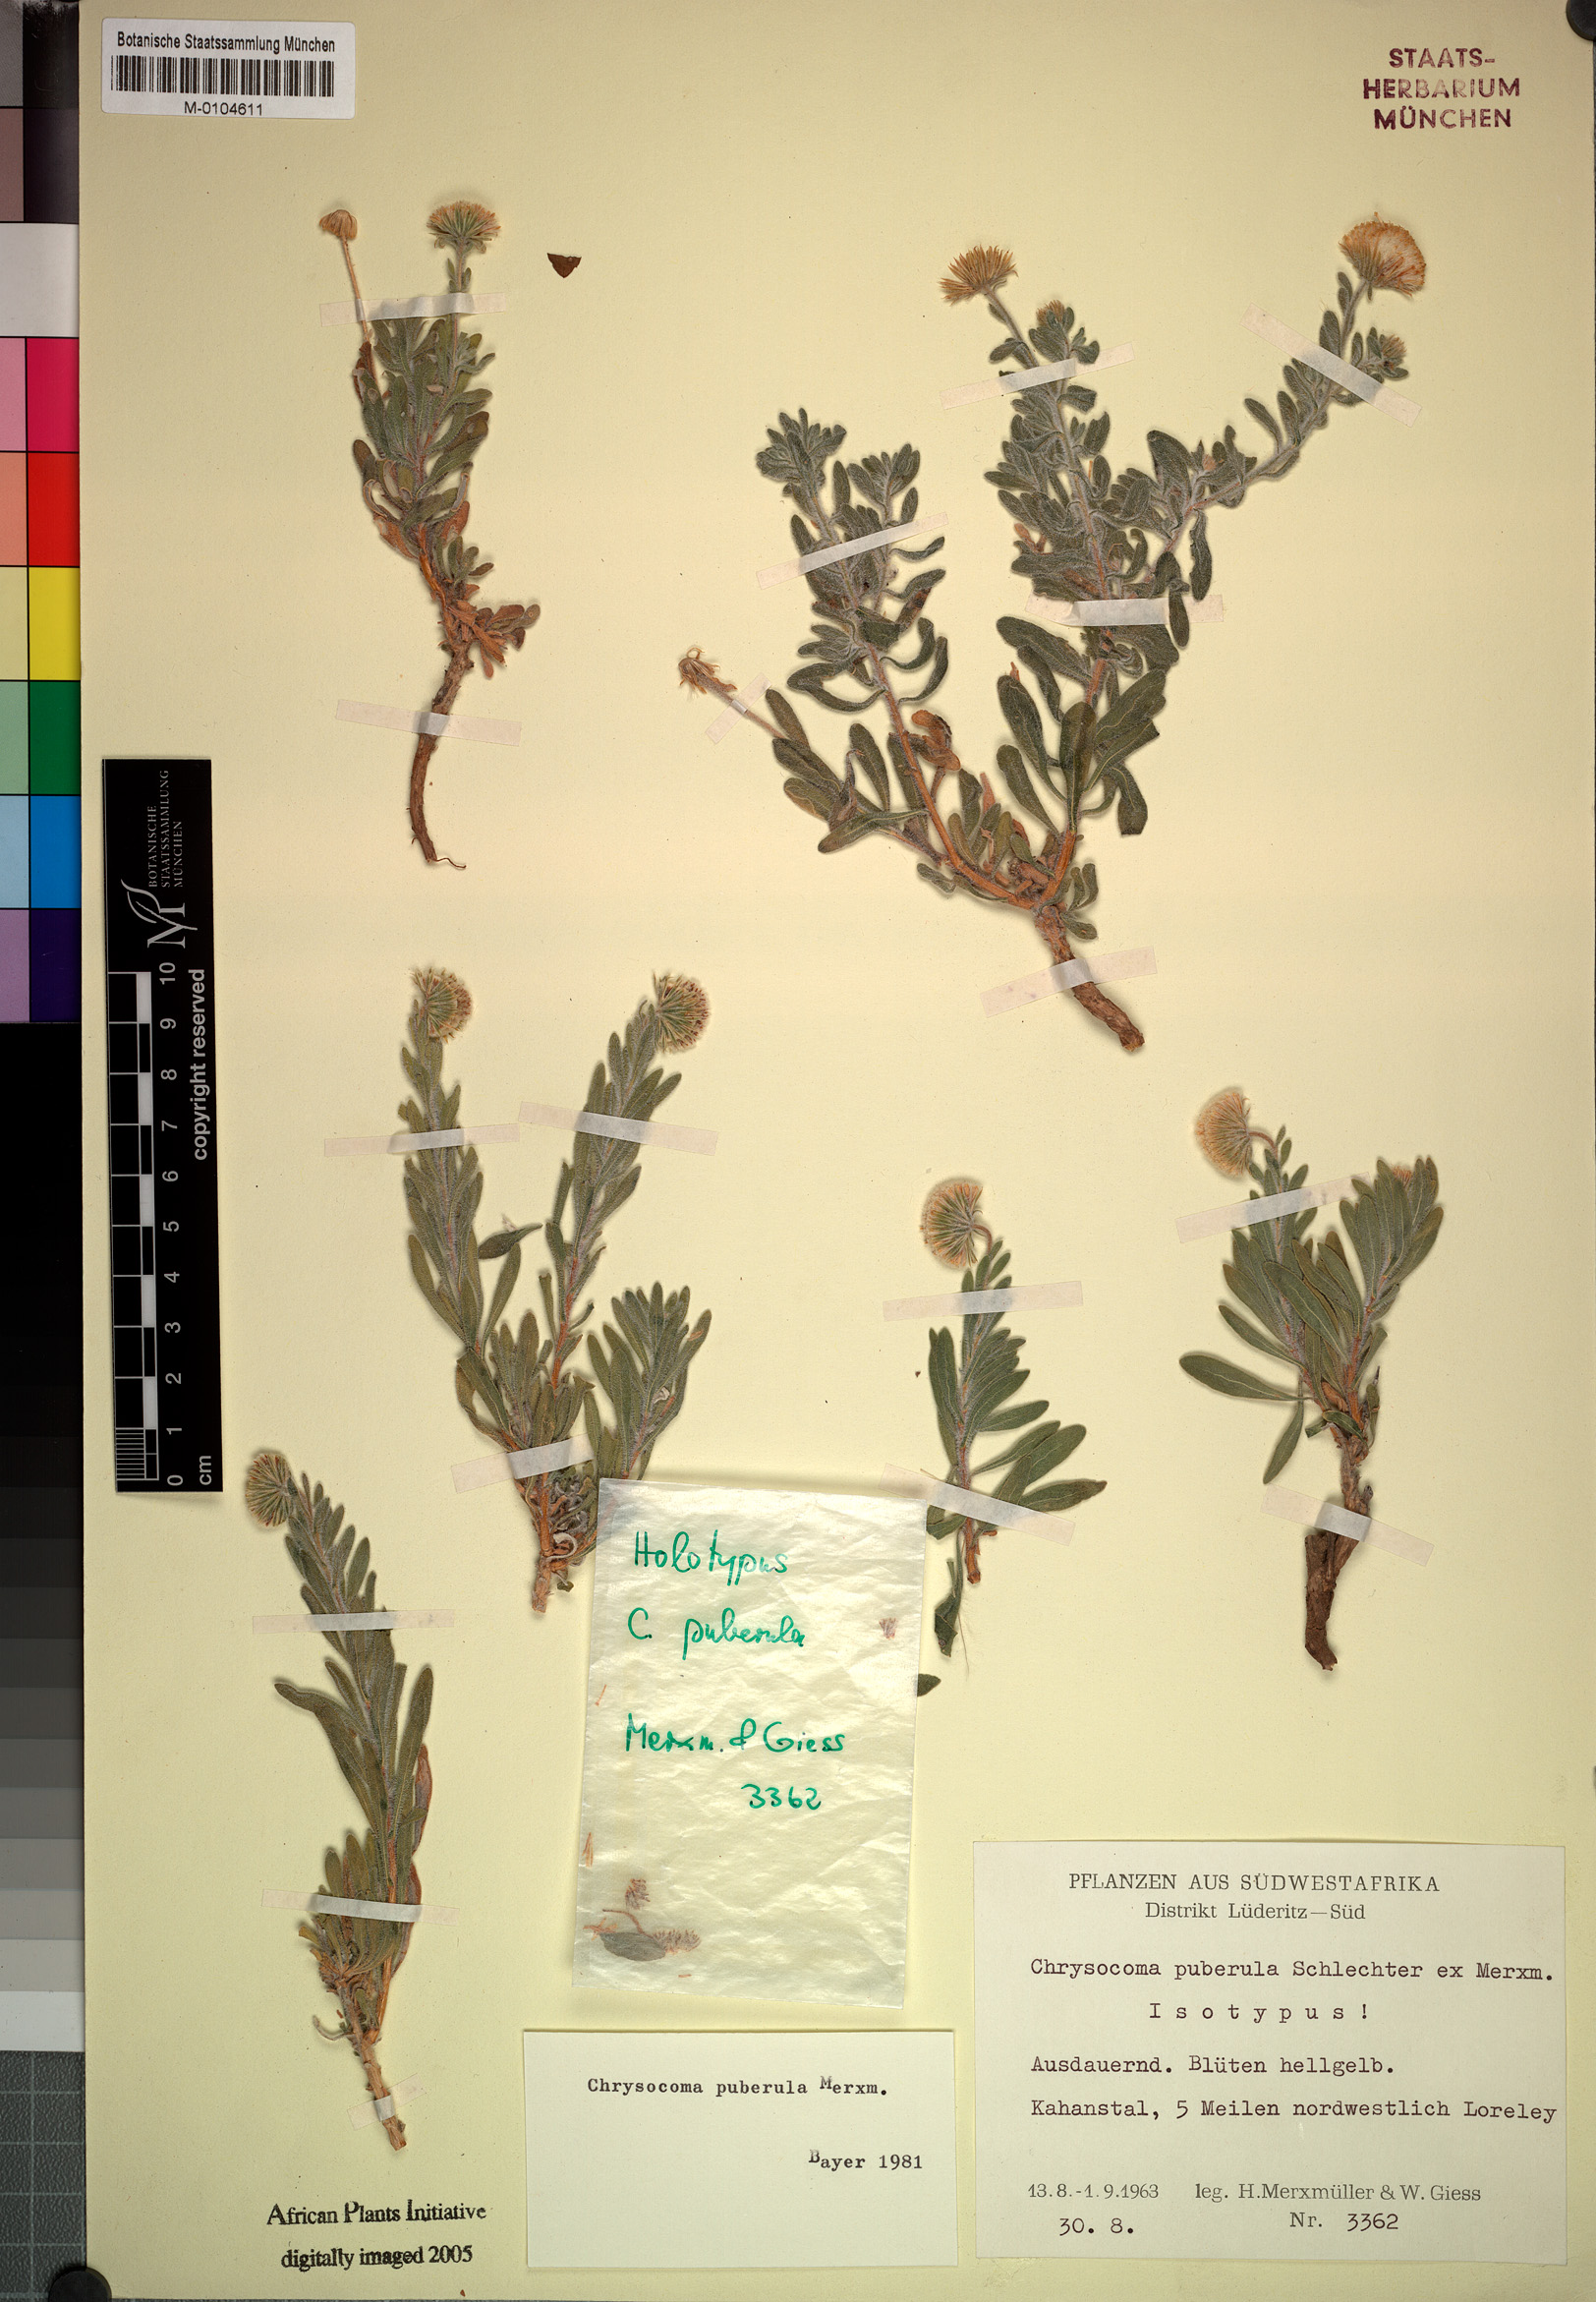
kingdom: Plantae
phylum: Tracheophyta
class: Magnoliopsida
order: Asterales
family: Asteraceae
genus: Chrysocoma
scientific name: Chrysocoma schlechteri
